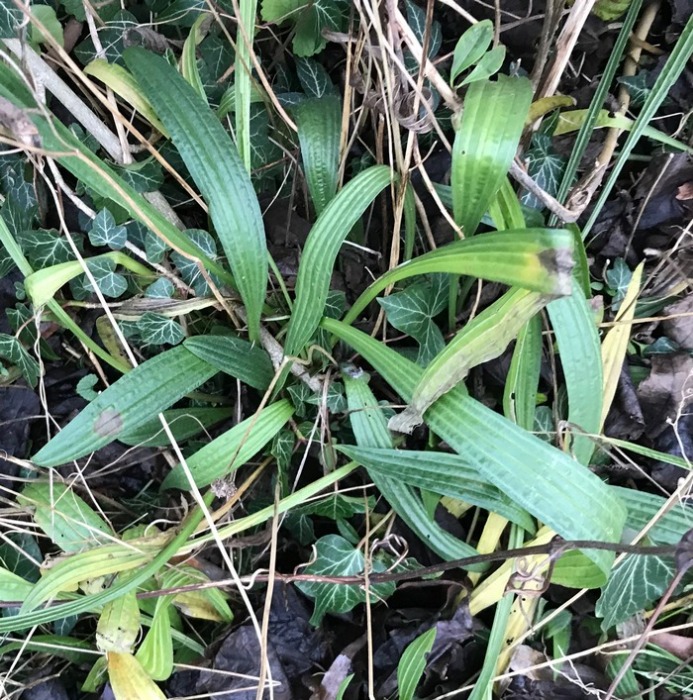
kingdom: Plantae
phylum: Tracheophyta
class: Magnoliopsida
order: Lamiales
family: Plantaginaceae
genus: Plantago
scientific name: Plantago lanceolata
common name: Lancet-vejbred
